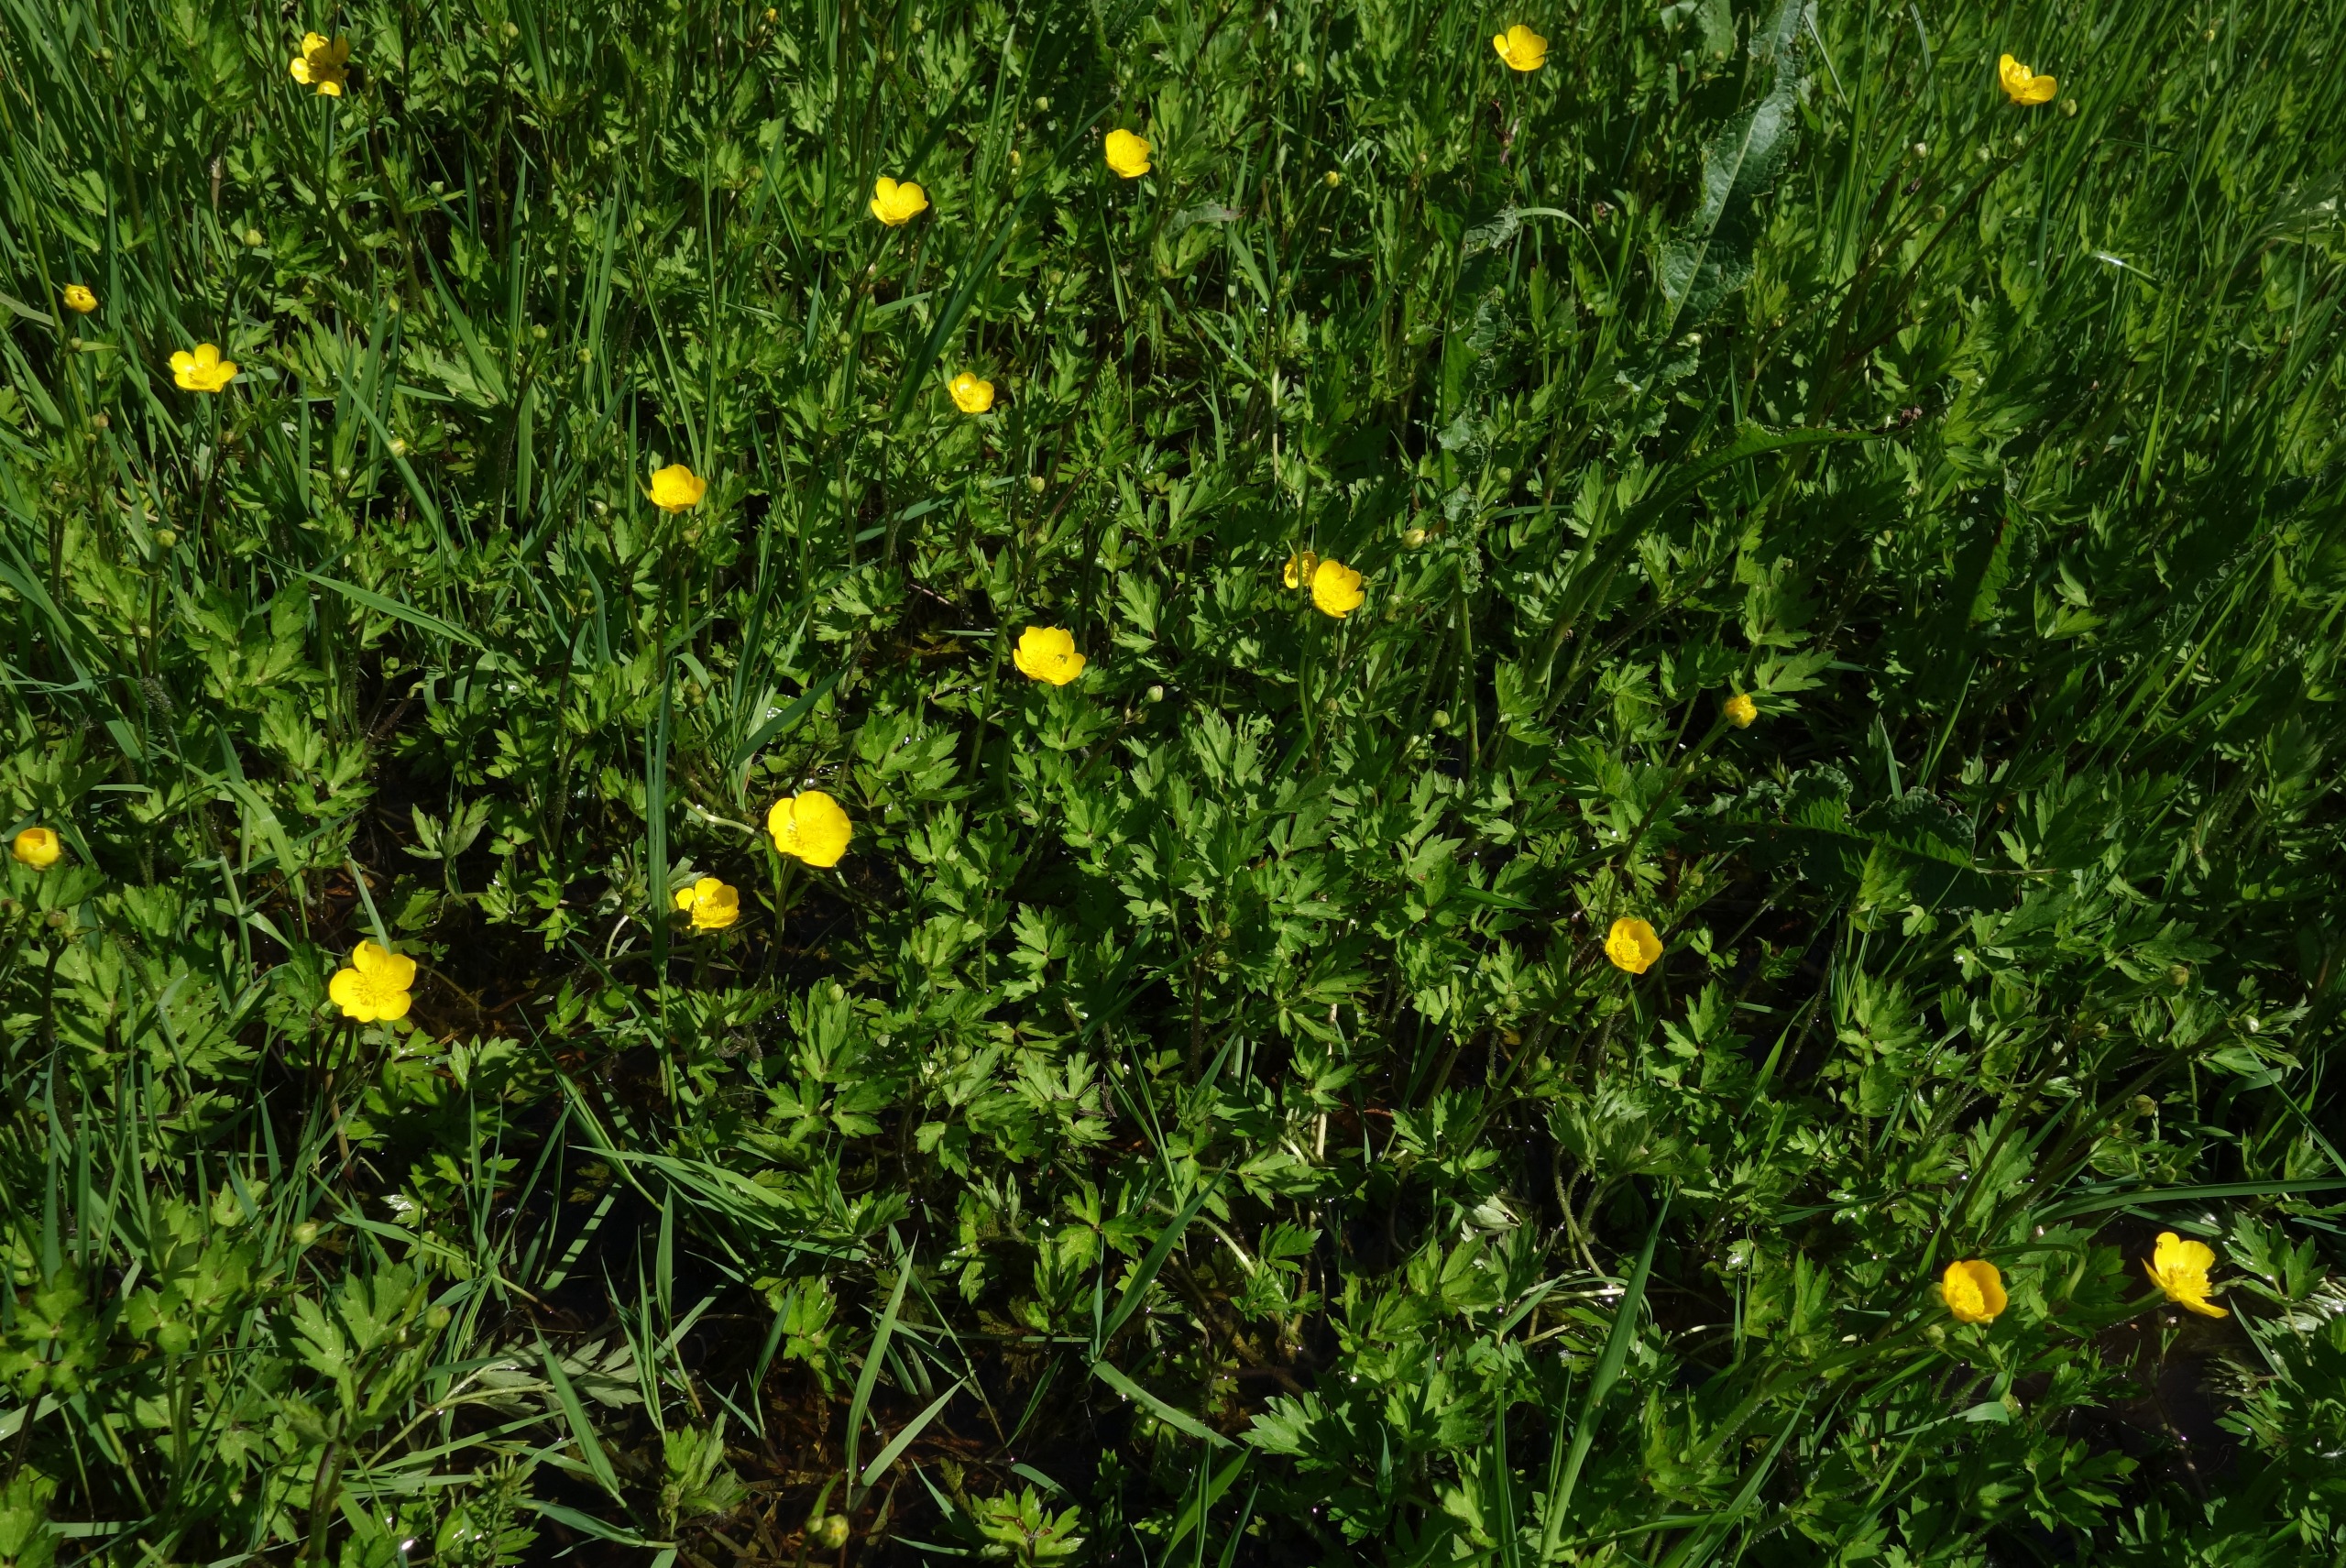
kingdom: Plantae
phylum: Tracheophyta
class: Magnoliopsida
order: Ranunculales
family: Ranunculaceae
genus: Ranunculus
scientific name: Ranunculus repens
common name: Lav ranunkel
